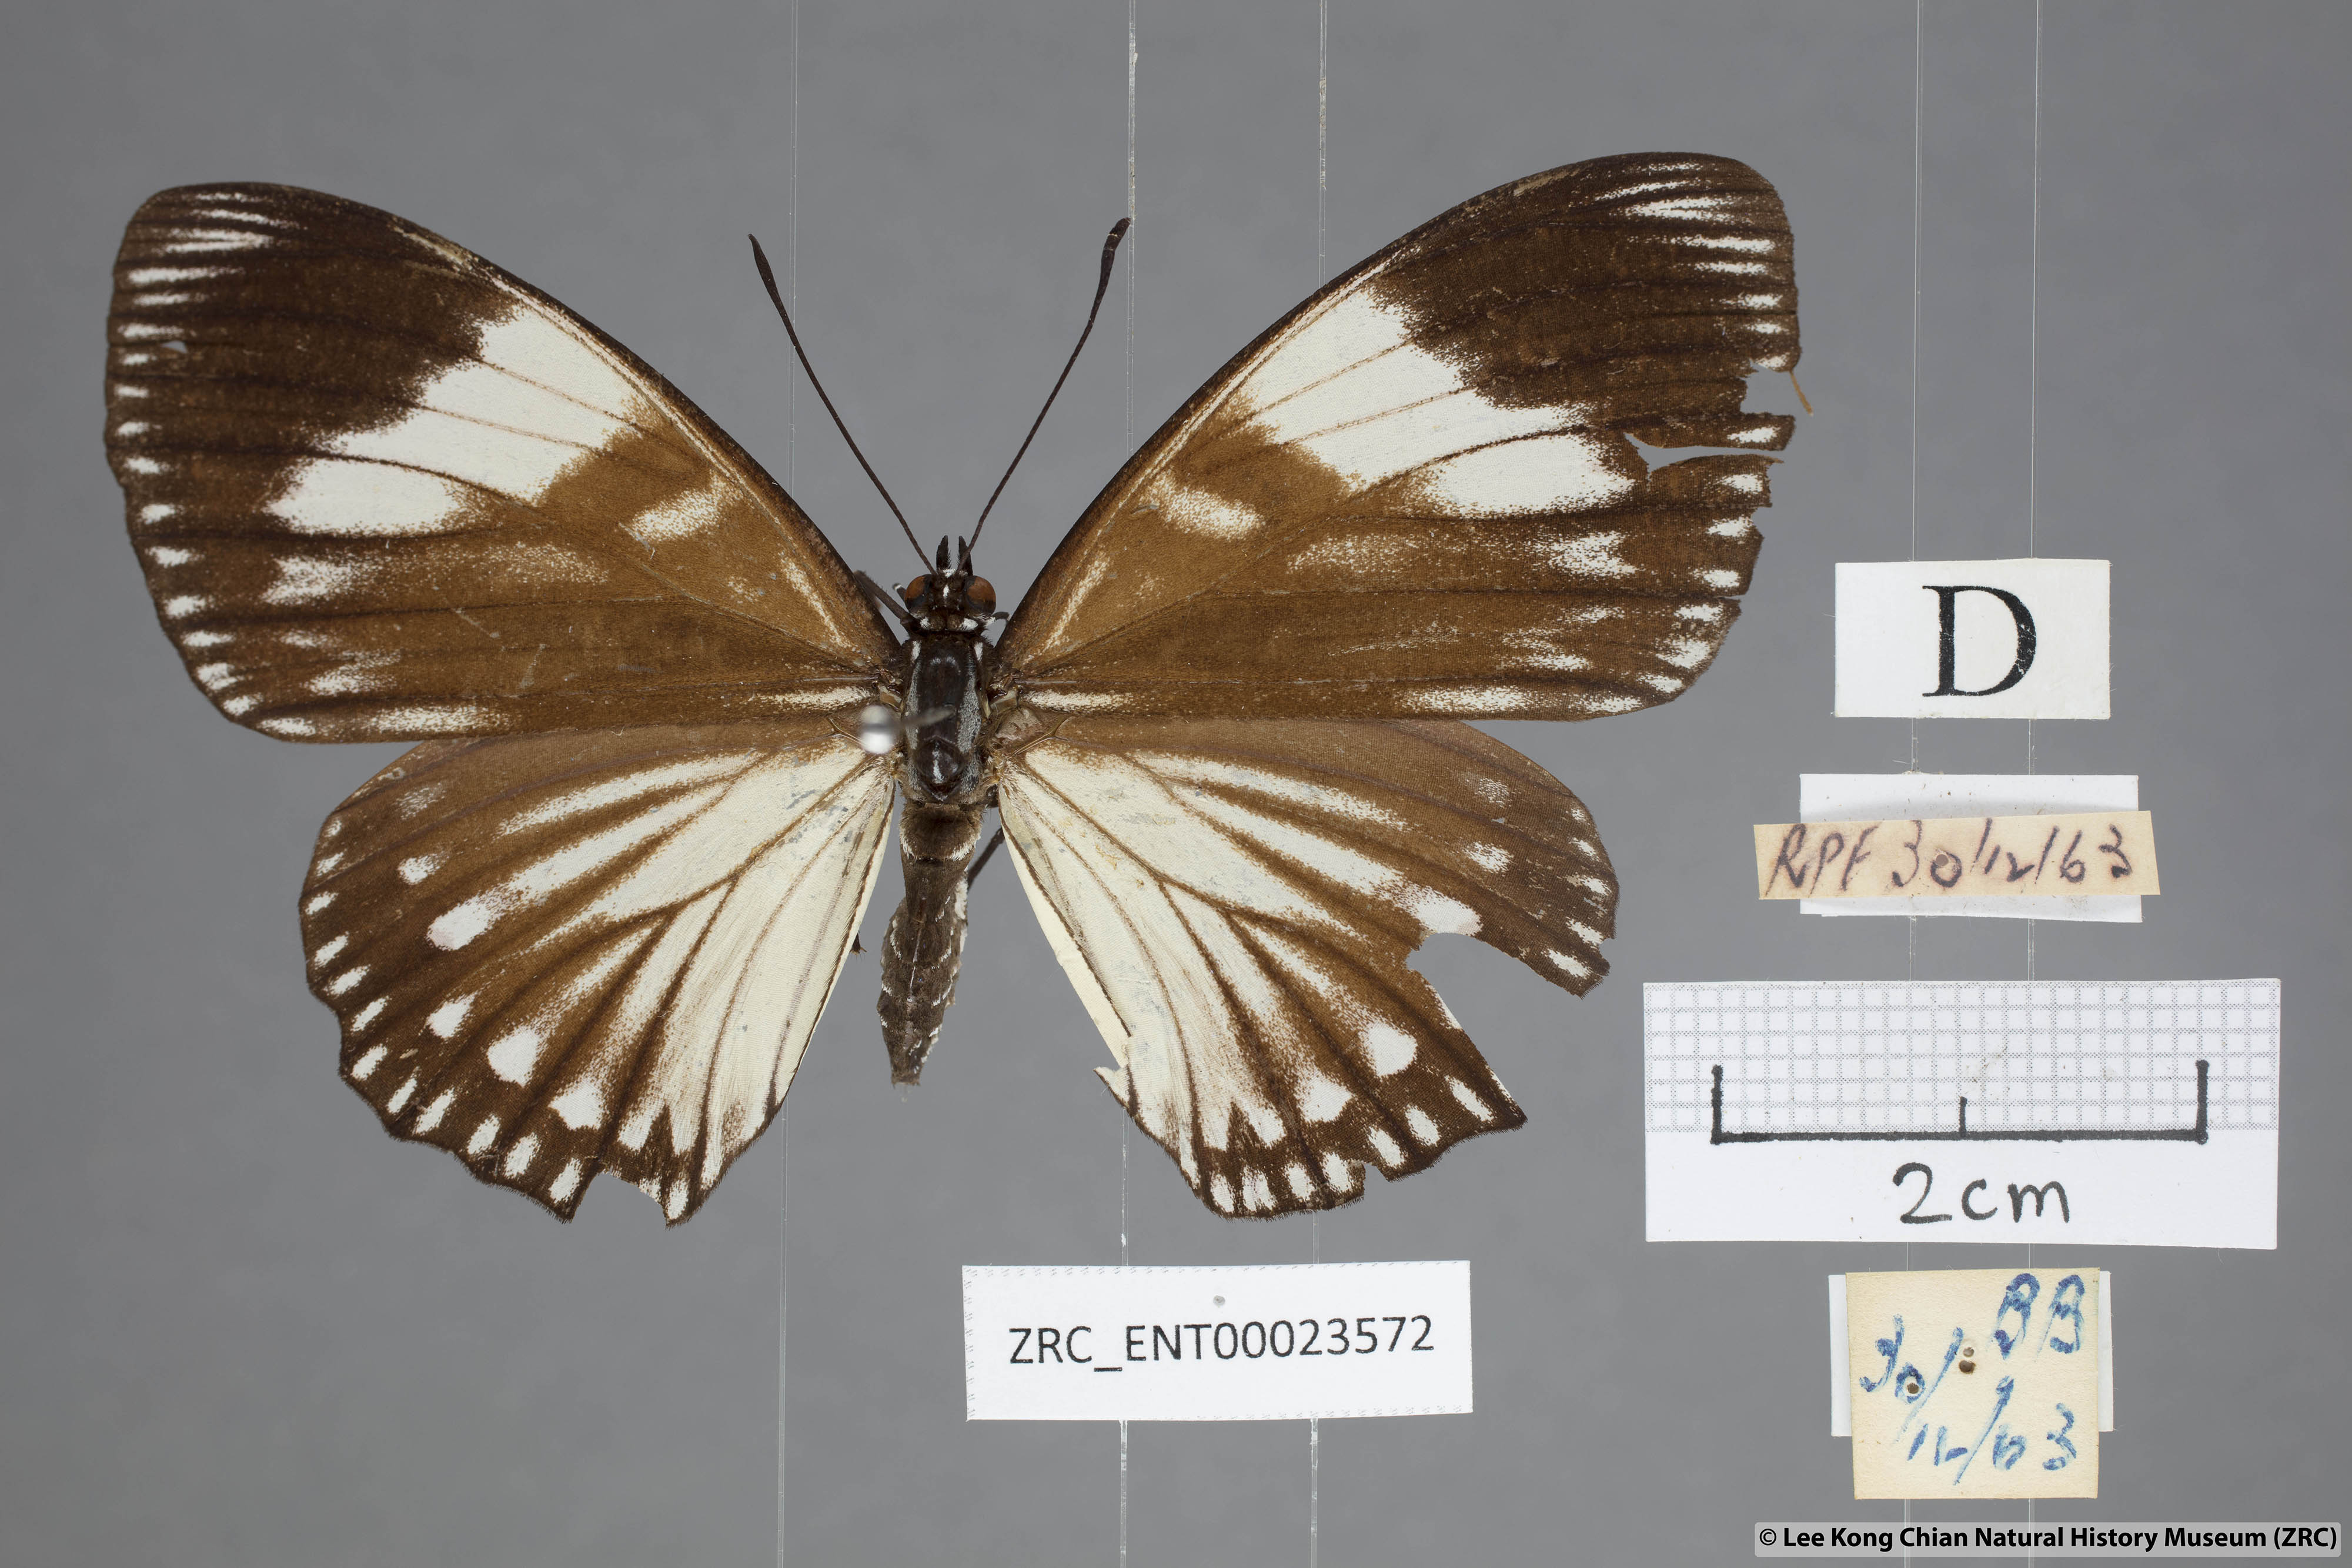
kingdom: Animalia
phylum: Arthropoda
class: Insecta
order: Lepidoptera
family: Nymphalidae
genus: Euripus
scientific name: Euripus nyctelius
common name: Courtesan
